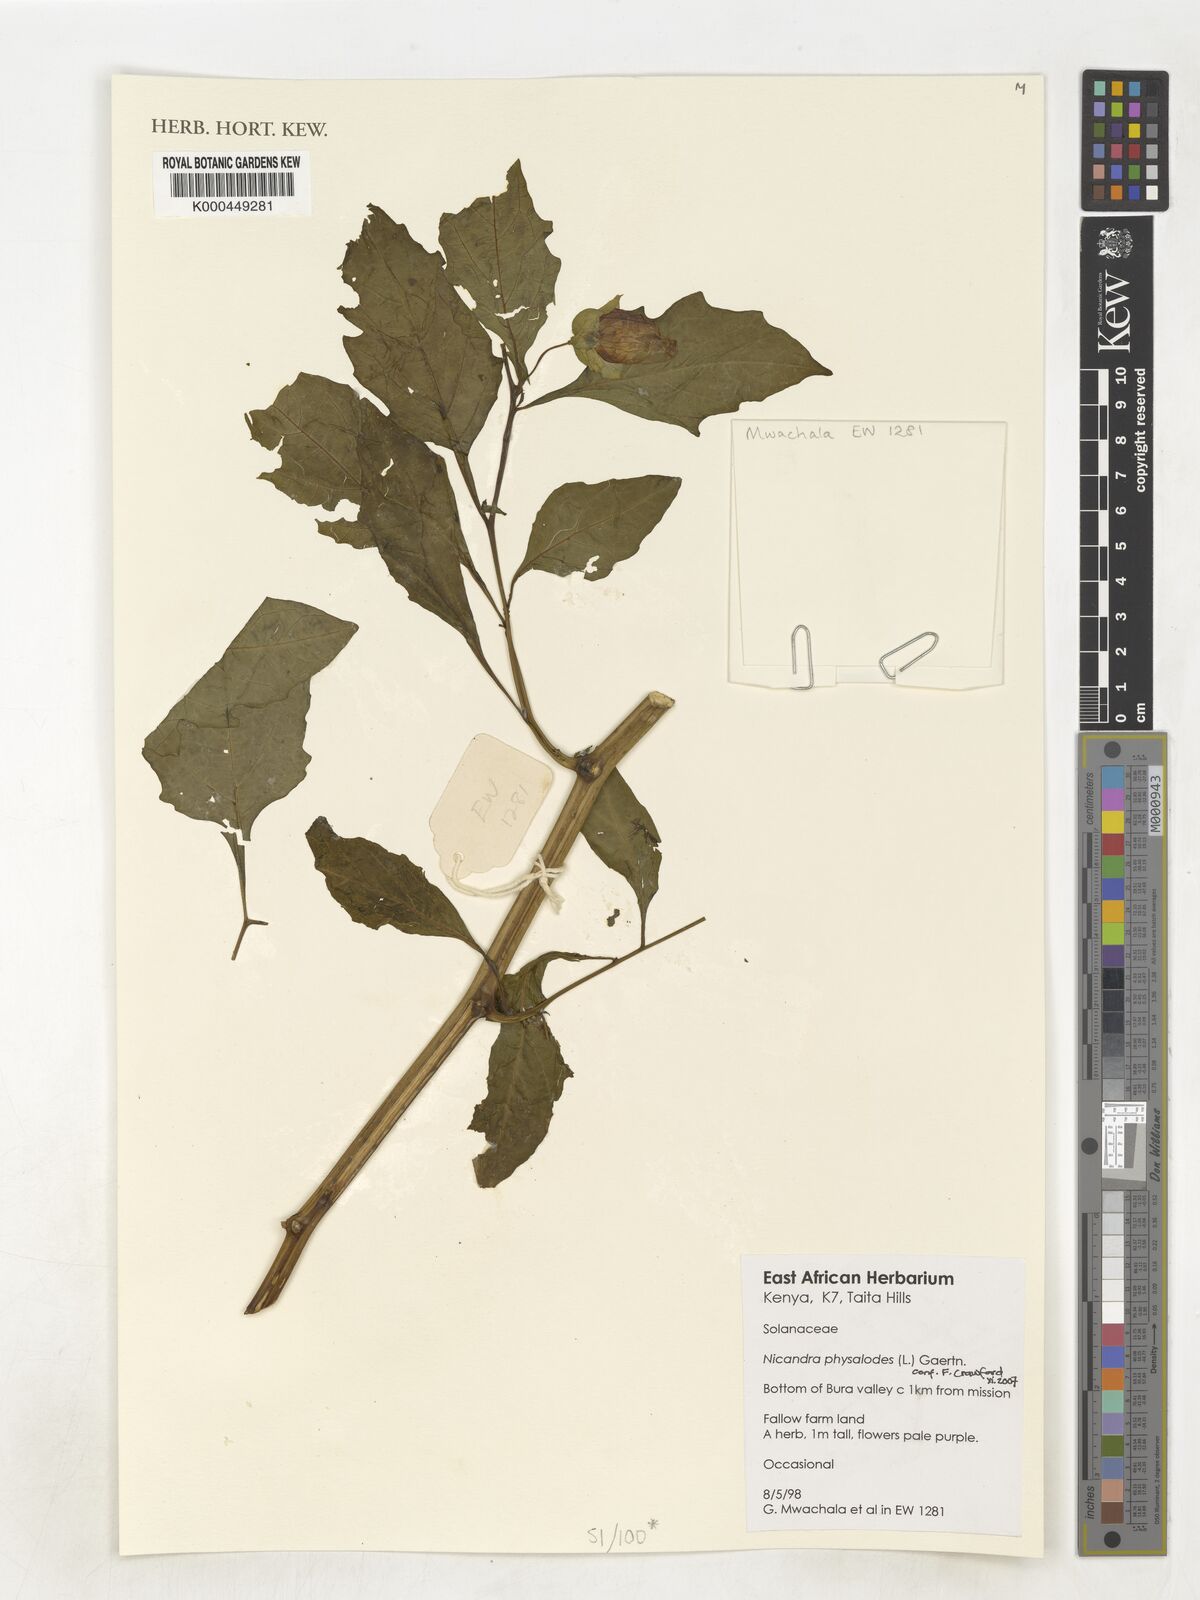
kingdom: Plantae
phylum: Tracheophyta
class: Magnoliopsida
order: Solanales
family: Solanaceae
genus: Nicandra
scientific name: Nicandra physalodes
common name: Apple-of-peru
